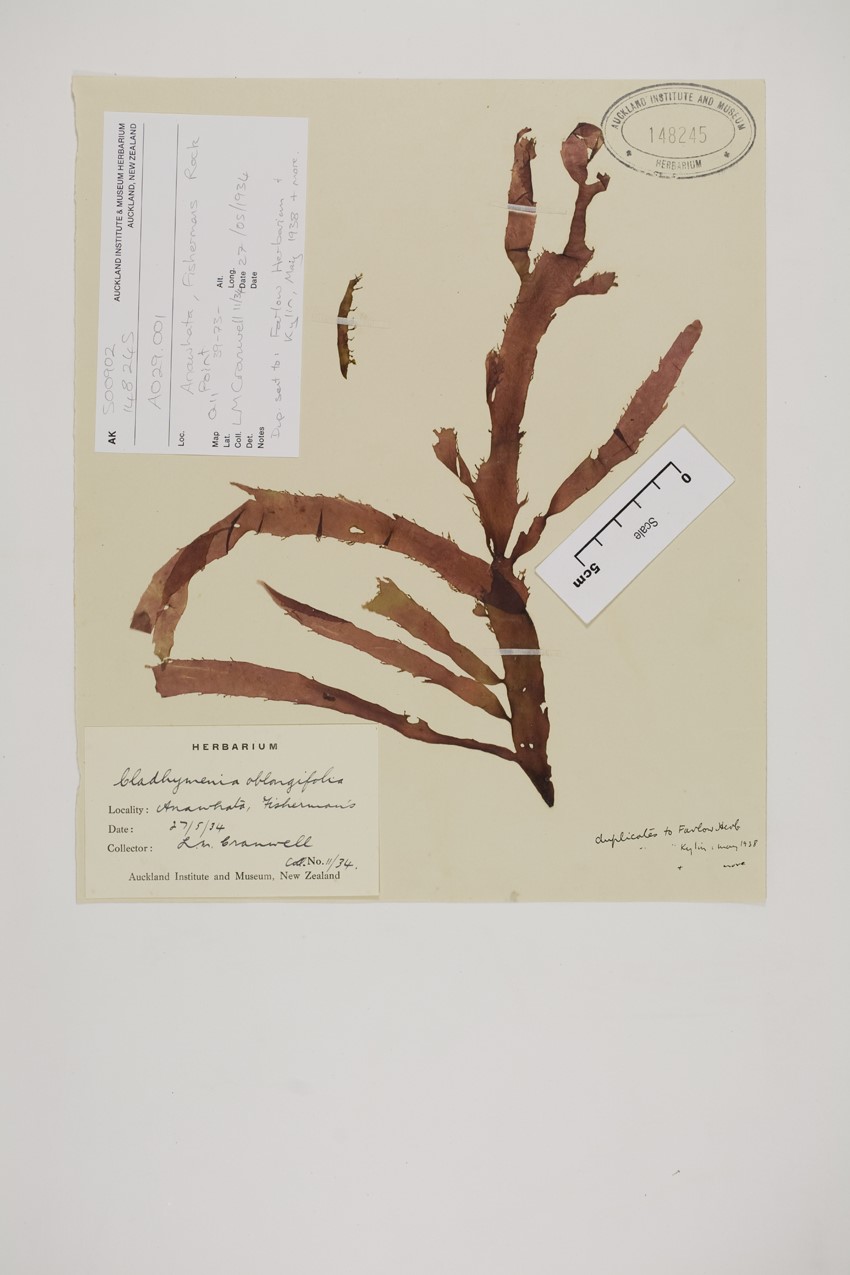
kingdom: Plantae
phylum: Rhodophyta
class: Florideophyceae
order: Ceramiales
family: Rhodomelaceae
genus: Cladhymenia
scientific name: Cladhymenia oblongifolia
